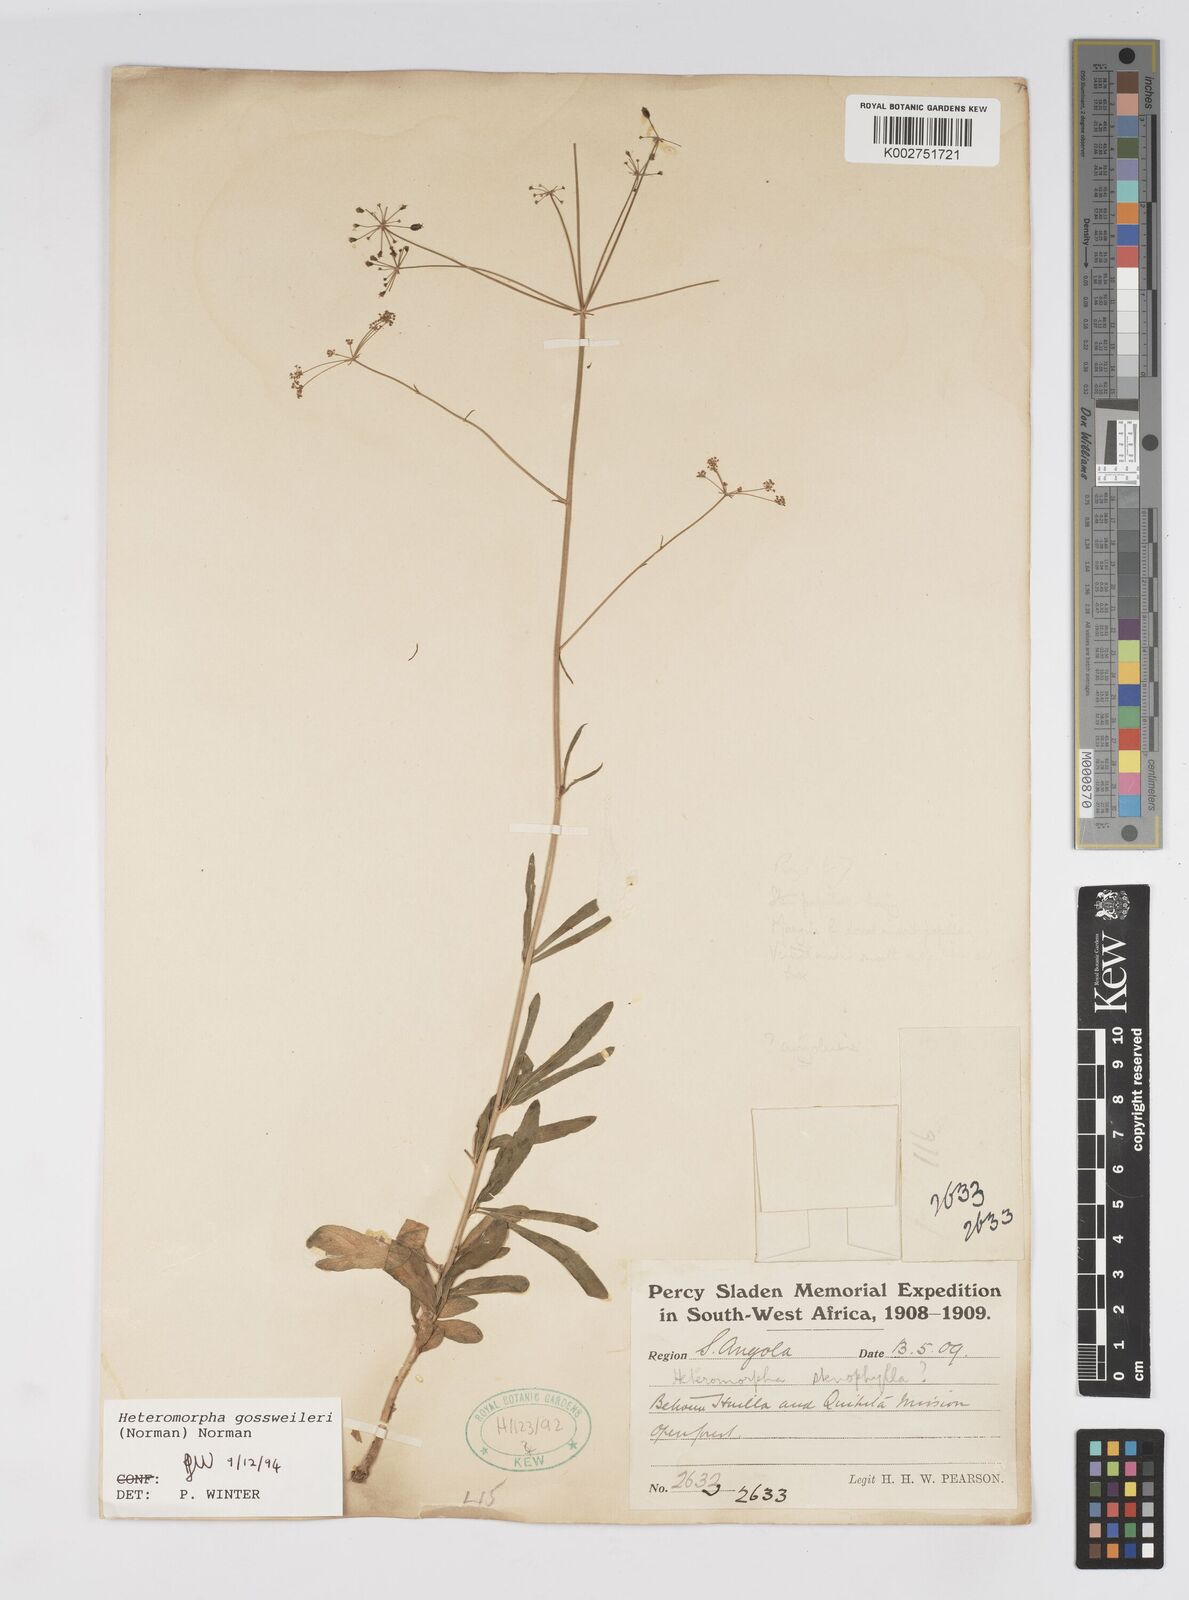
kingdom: Plantae
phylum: Tracheophyta
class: Magnoliopsida
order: Apiales
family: Apiaceae
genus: Heteromorpha
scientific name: Heteromorpha gossweileri
